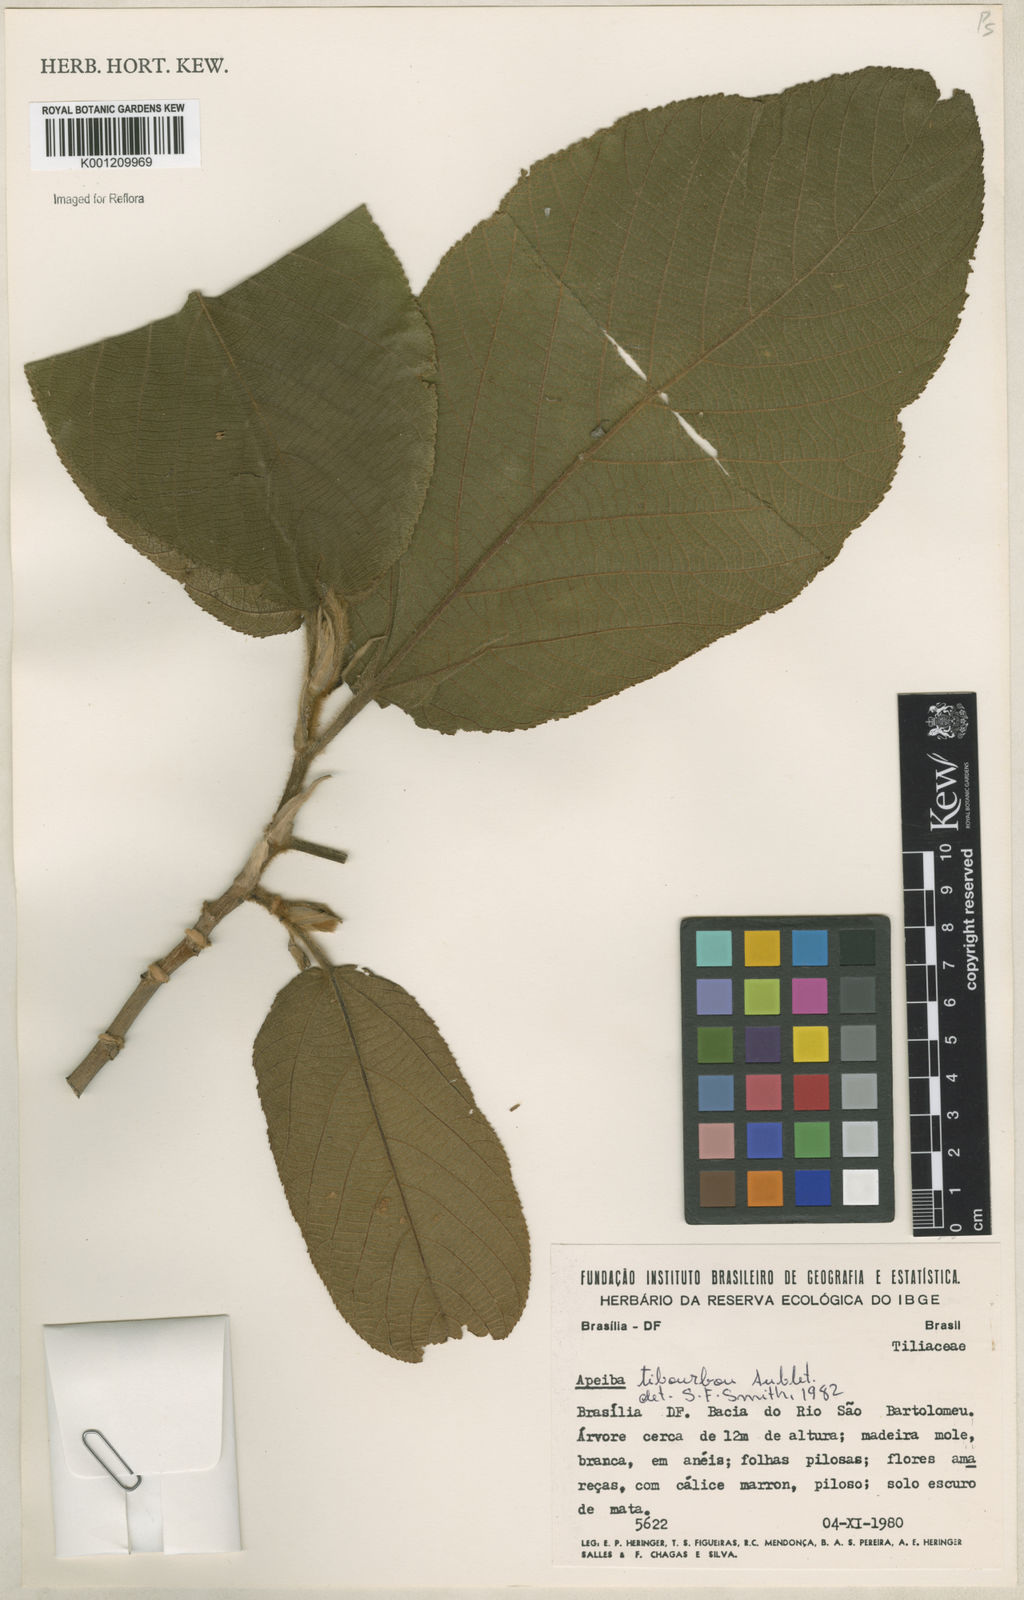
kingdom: Plantae
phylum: Tracheophyta
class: Magnoliopsida
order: Malvales
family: Malvaceae
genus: Apeiba
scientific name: Apeiba tibourbou
